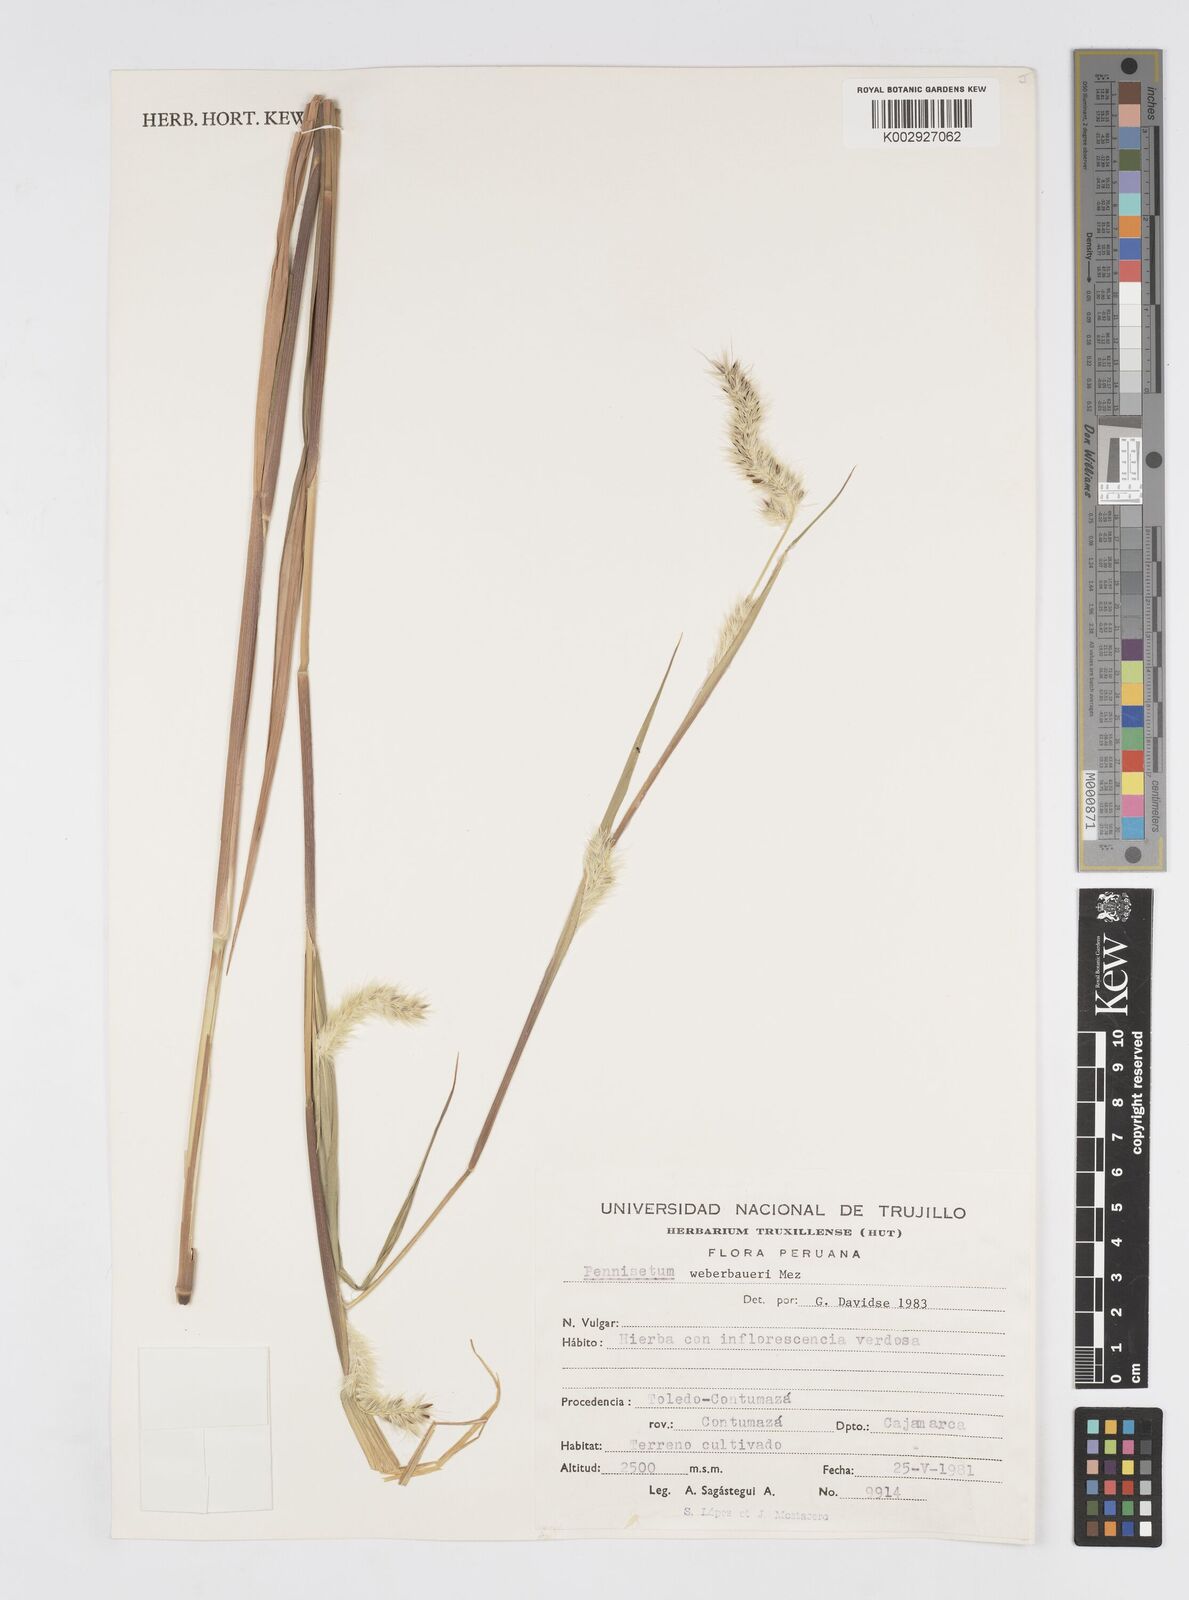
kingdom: Plantae
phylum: Tracheophyta
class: Liliopsida
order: Poales
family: Poaceae
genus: Cenchrus
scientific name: Cenchrus weberbaueri
